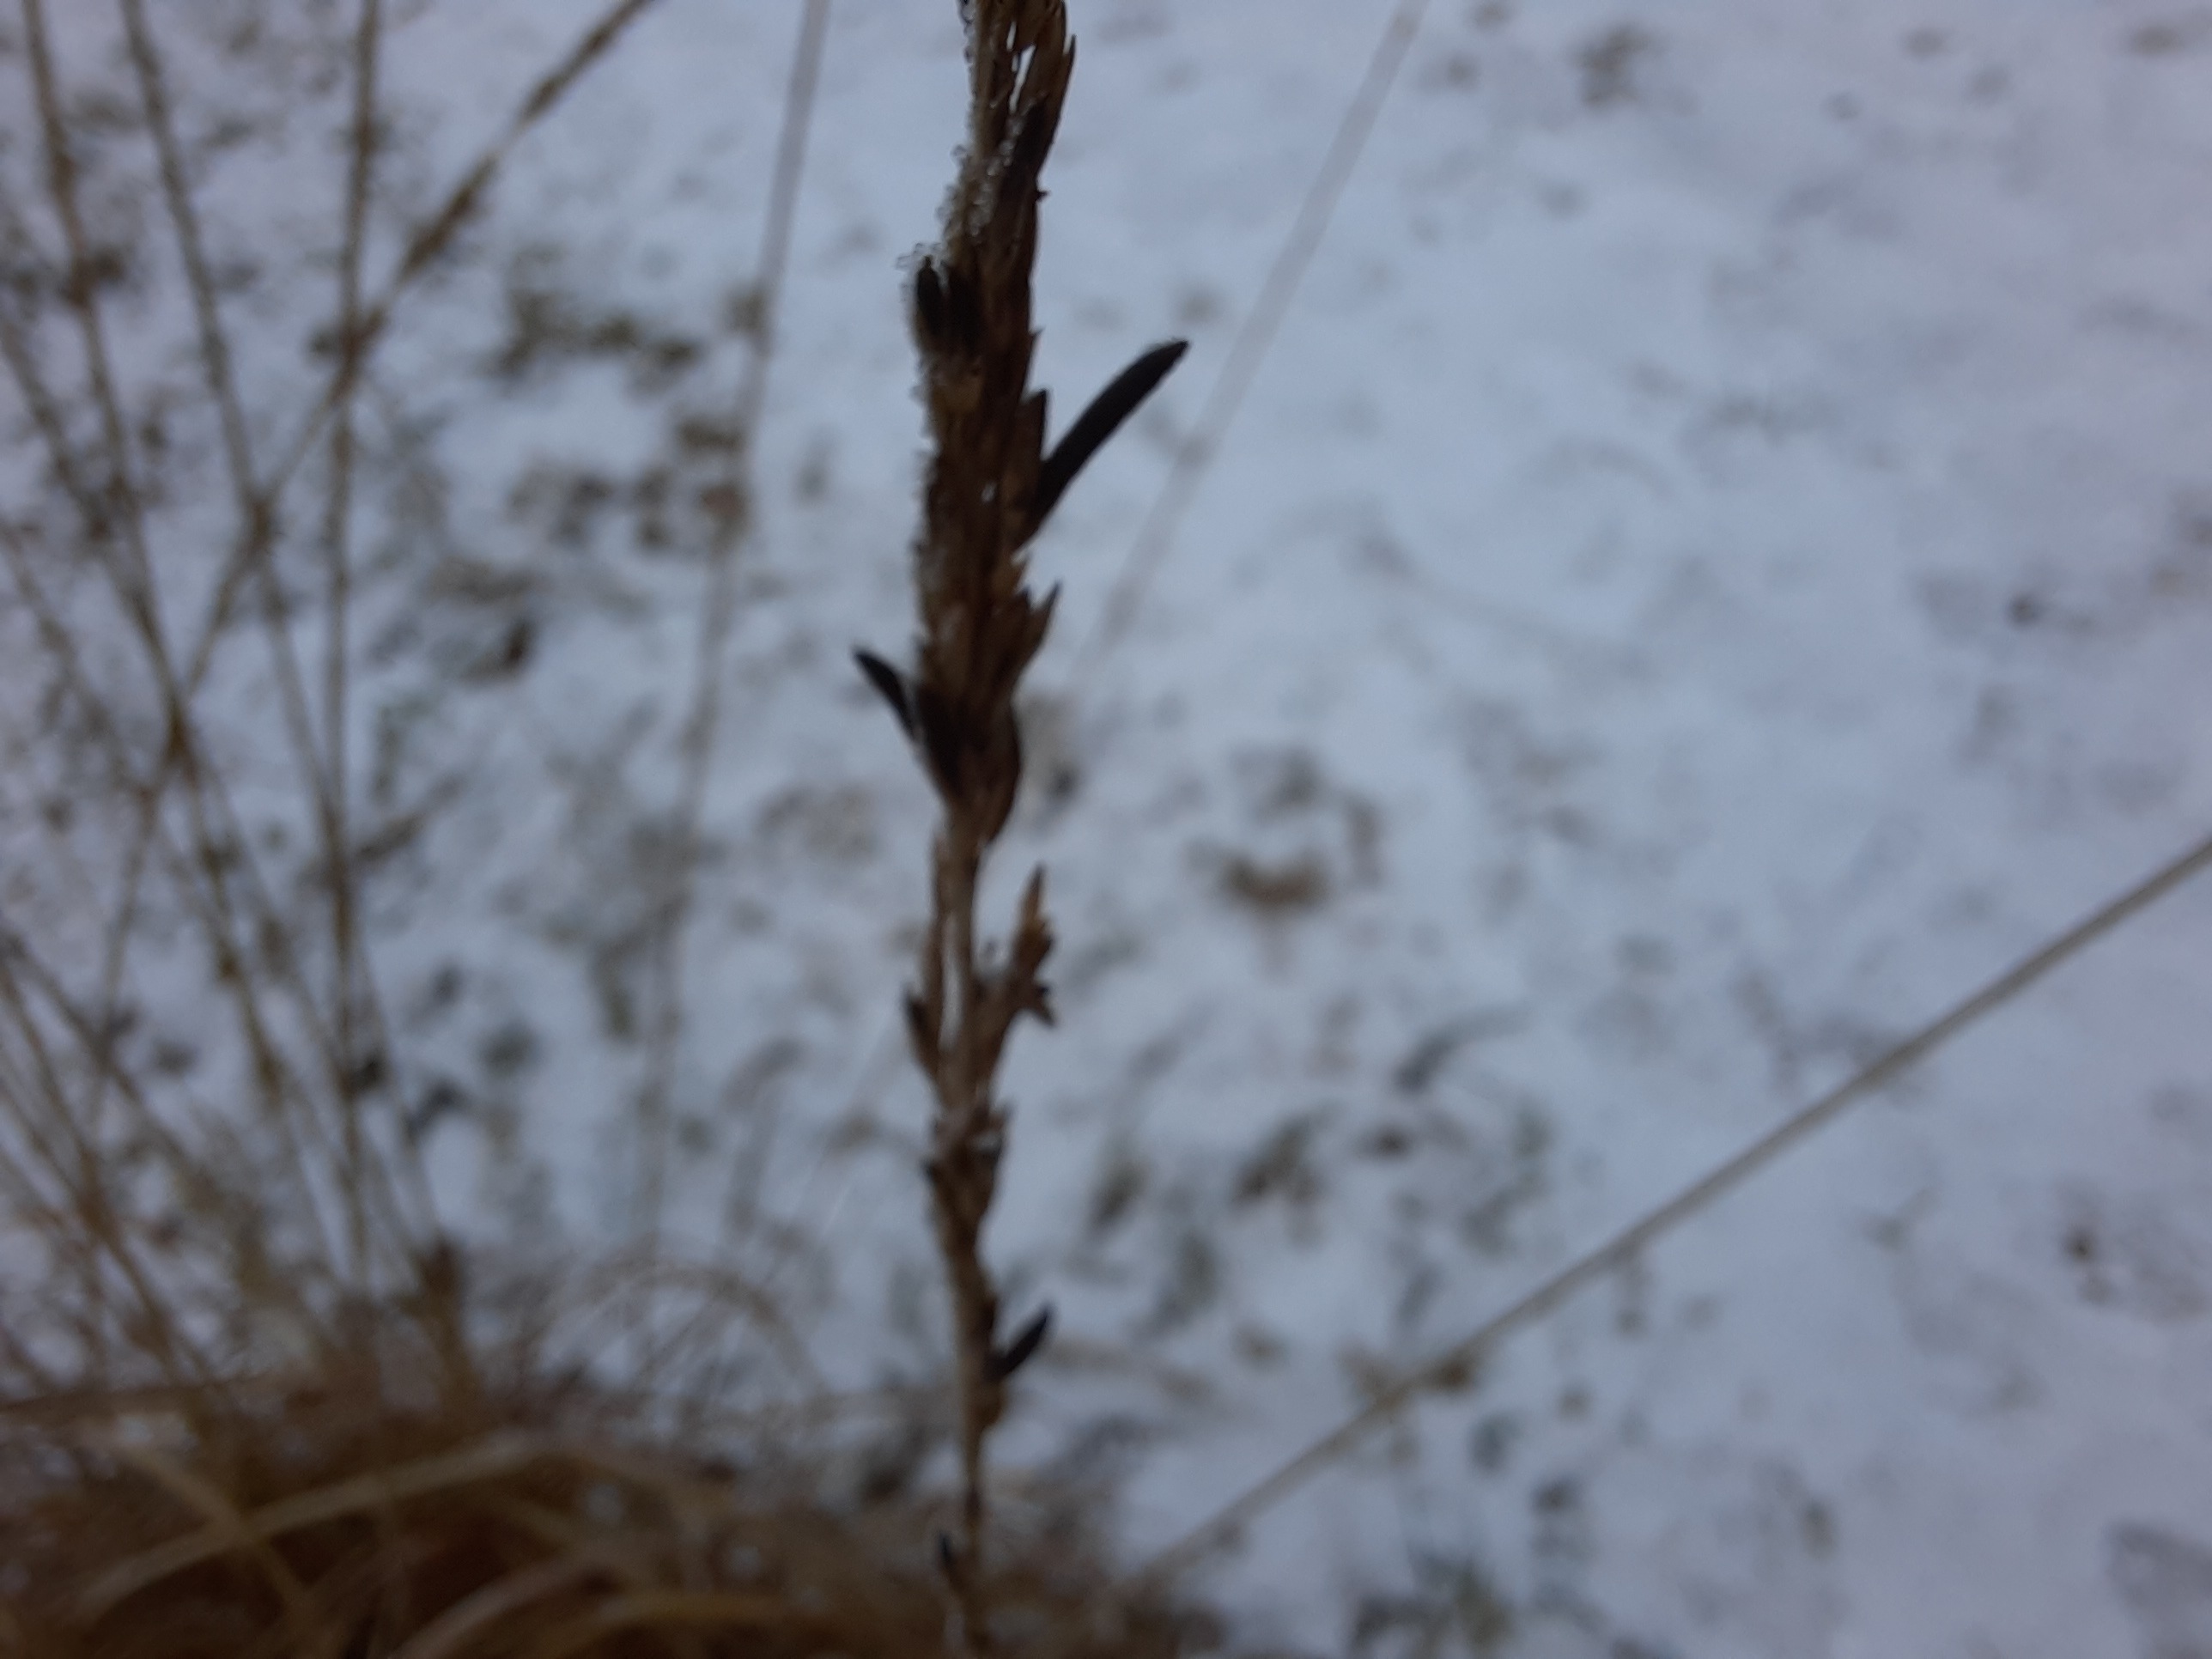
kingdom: Fungi
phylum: Ascomycota
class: Sordariomycetes
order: Hypocreales
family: Clavicipitaceae
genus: Claviceps
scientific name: Claviceps purpurea
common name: almindelig meldrøjer
